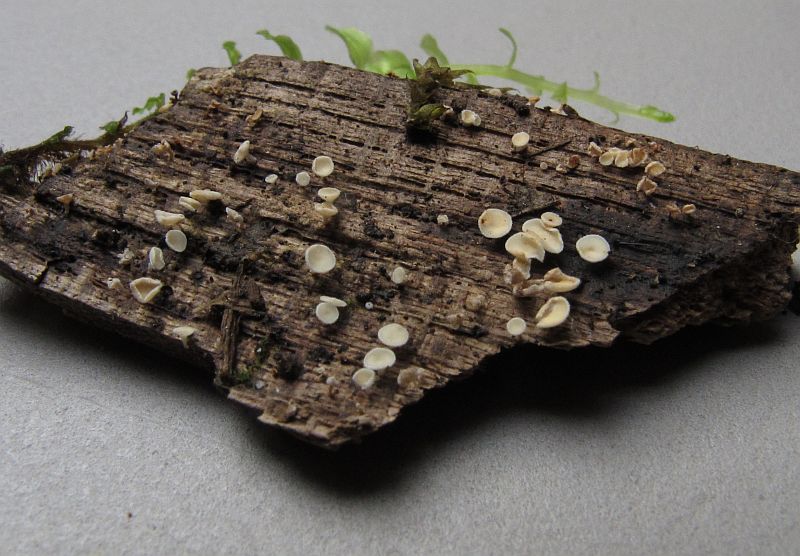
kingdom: Fungi
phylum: Ascomycota
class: Leotiomycetes
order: Helotiales
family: Lachnaceae
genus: Lachnum
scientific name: Lachnum impudicum
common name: vinter-frynseskive
